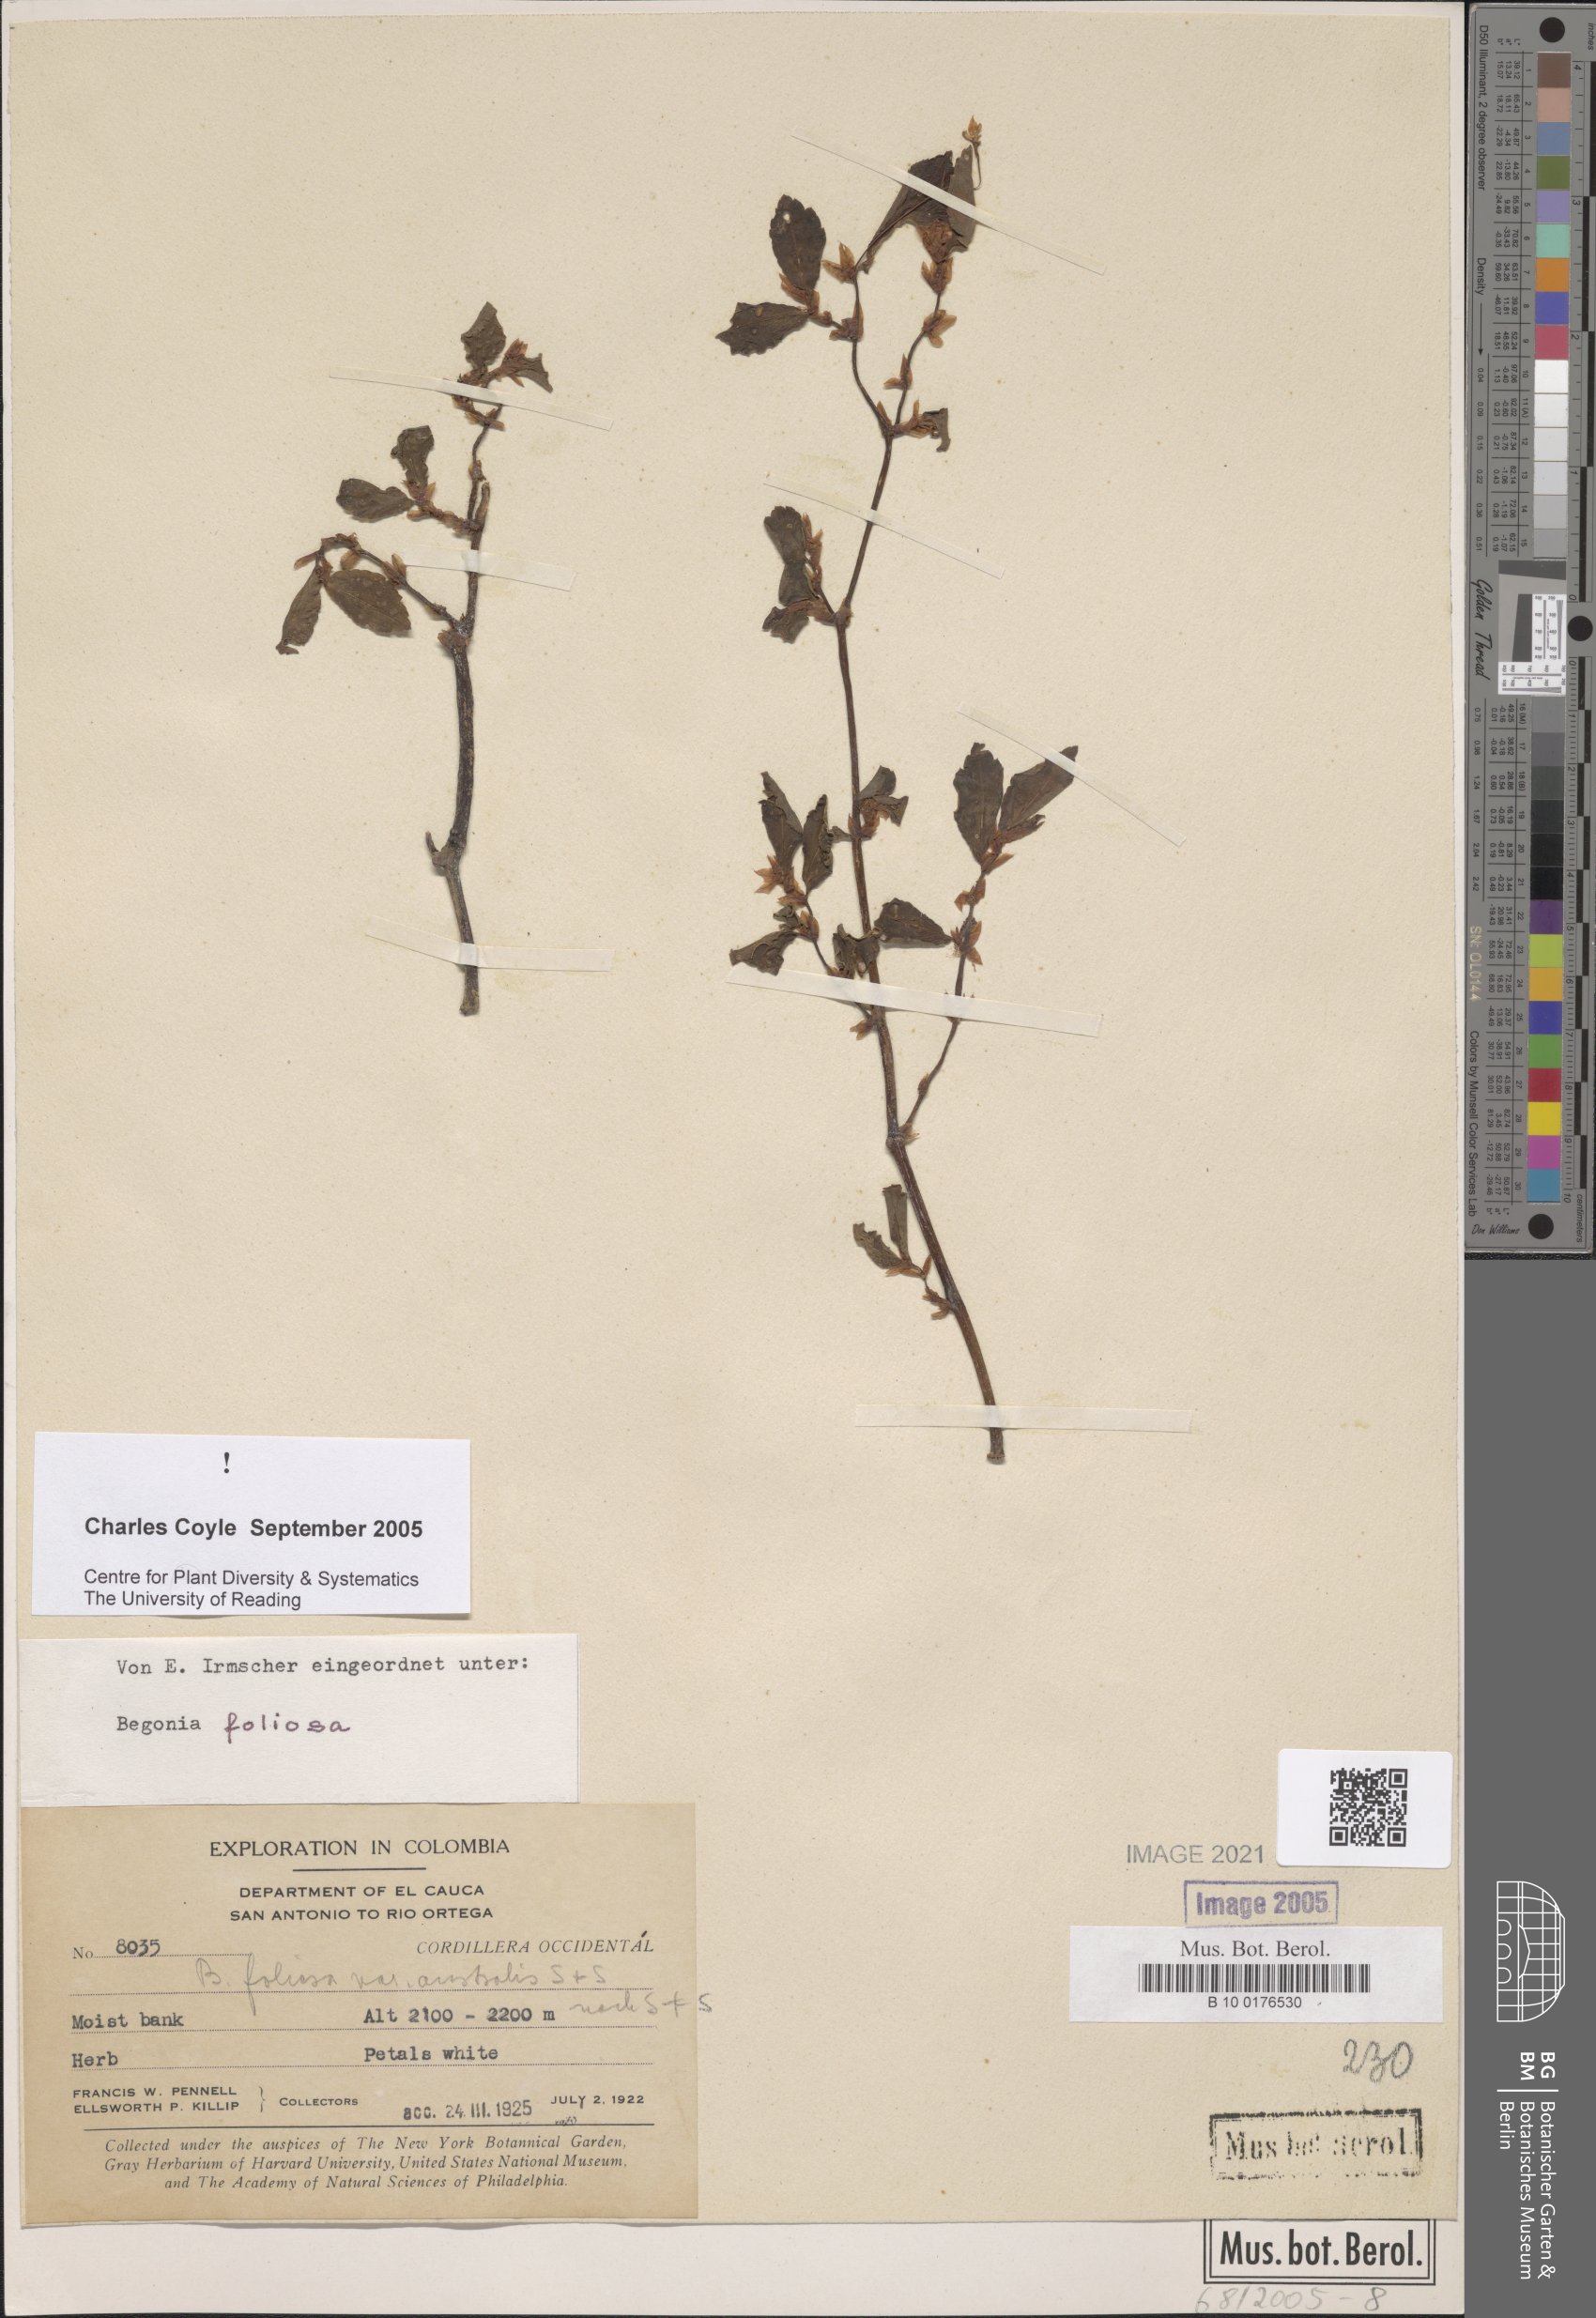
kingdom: Plantae
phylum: Tracheophyta
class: Magnoliopsida
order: Cucurbitales
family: Begoniaceae
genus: Begonia
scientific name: Begonia foliosa
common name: Fern begonia
